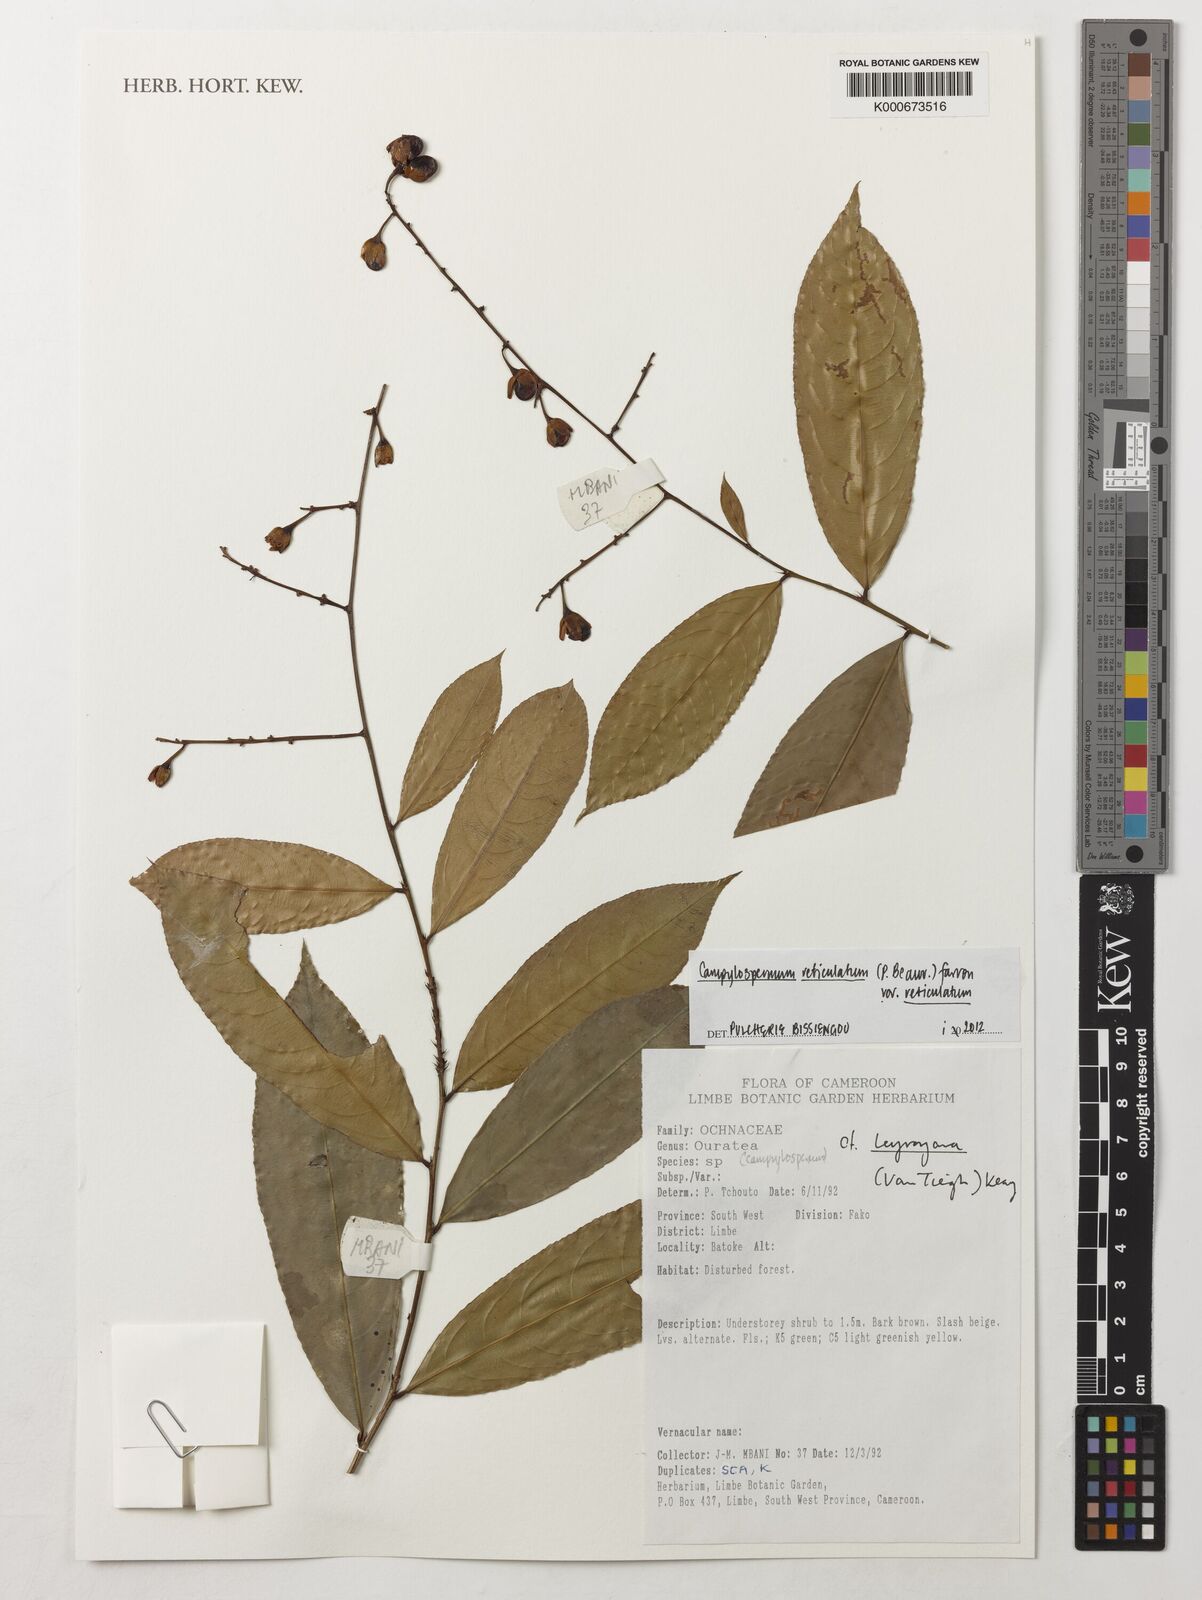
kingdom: Plantae
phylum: Tracheophyta
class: Magnoliopsida
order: Malpighiales
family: Ochnaceae
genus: Campylospermum
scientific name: Campylospermum reticulatum
